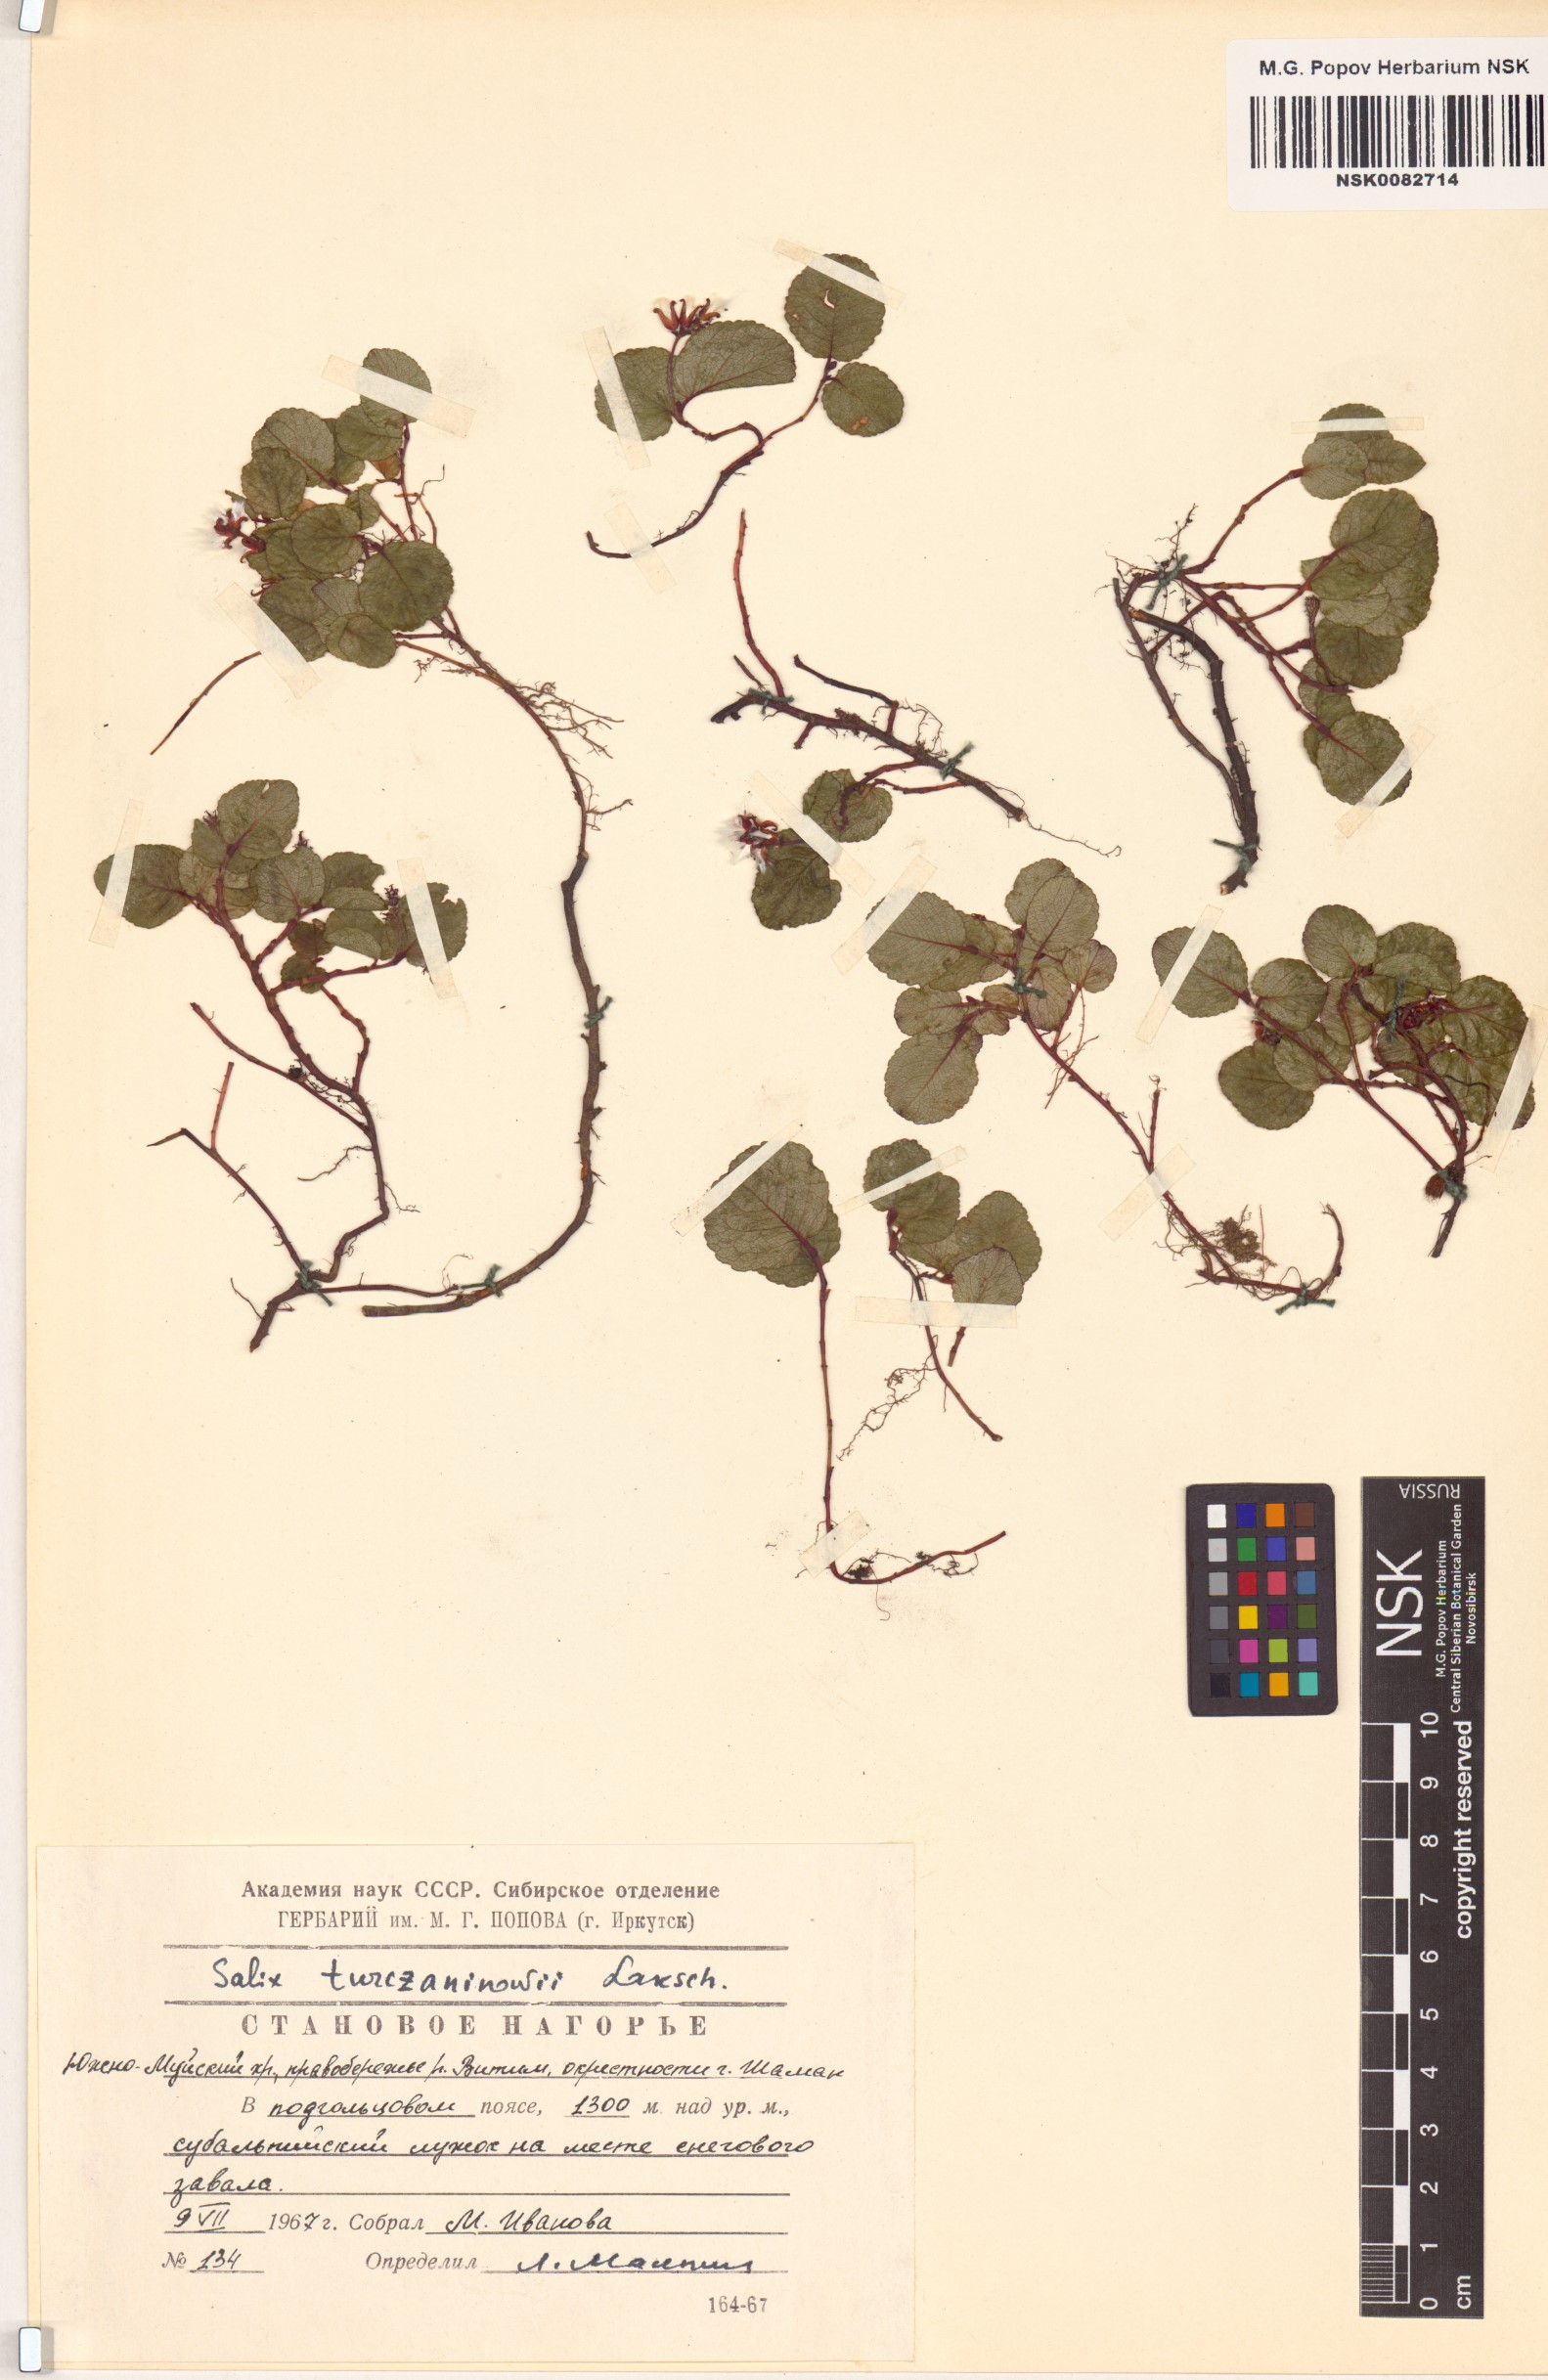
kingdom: Plantae
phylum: Tracheophyta
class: Magnoliopsida
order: Malpighiales
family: Salicaceae
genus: Salix
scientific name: Salix turczaninowii
